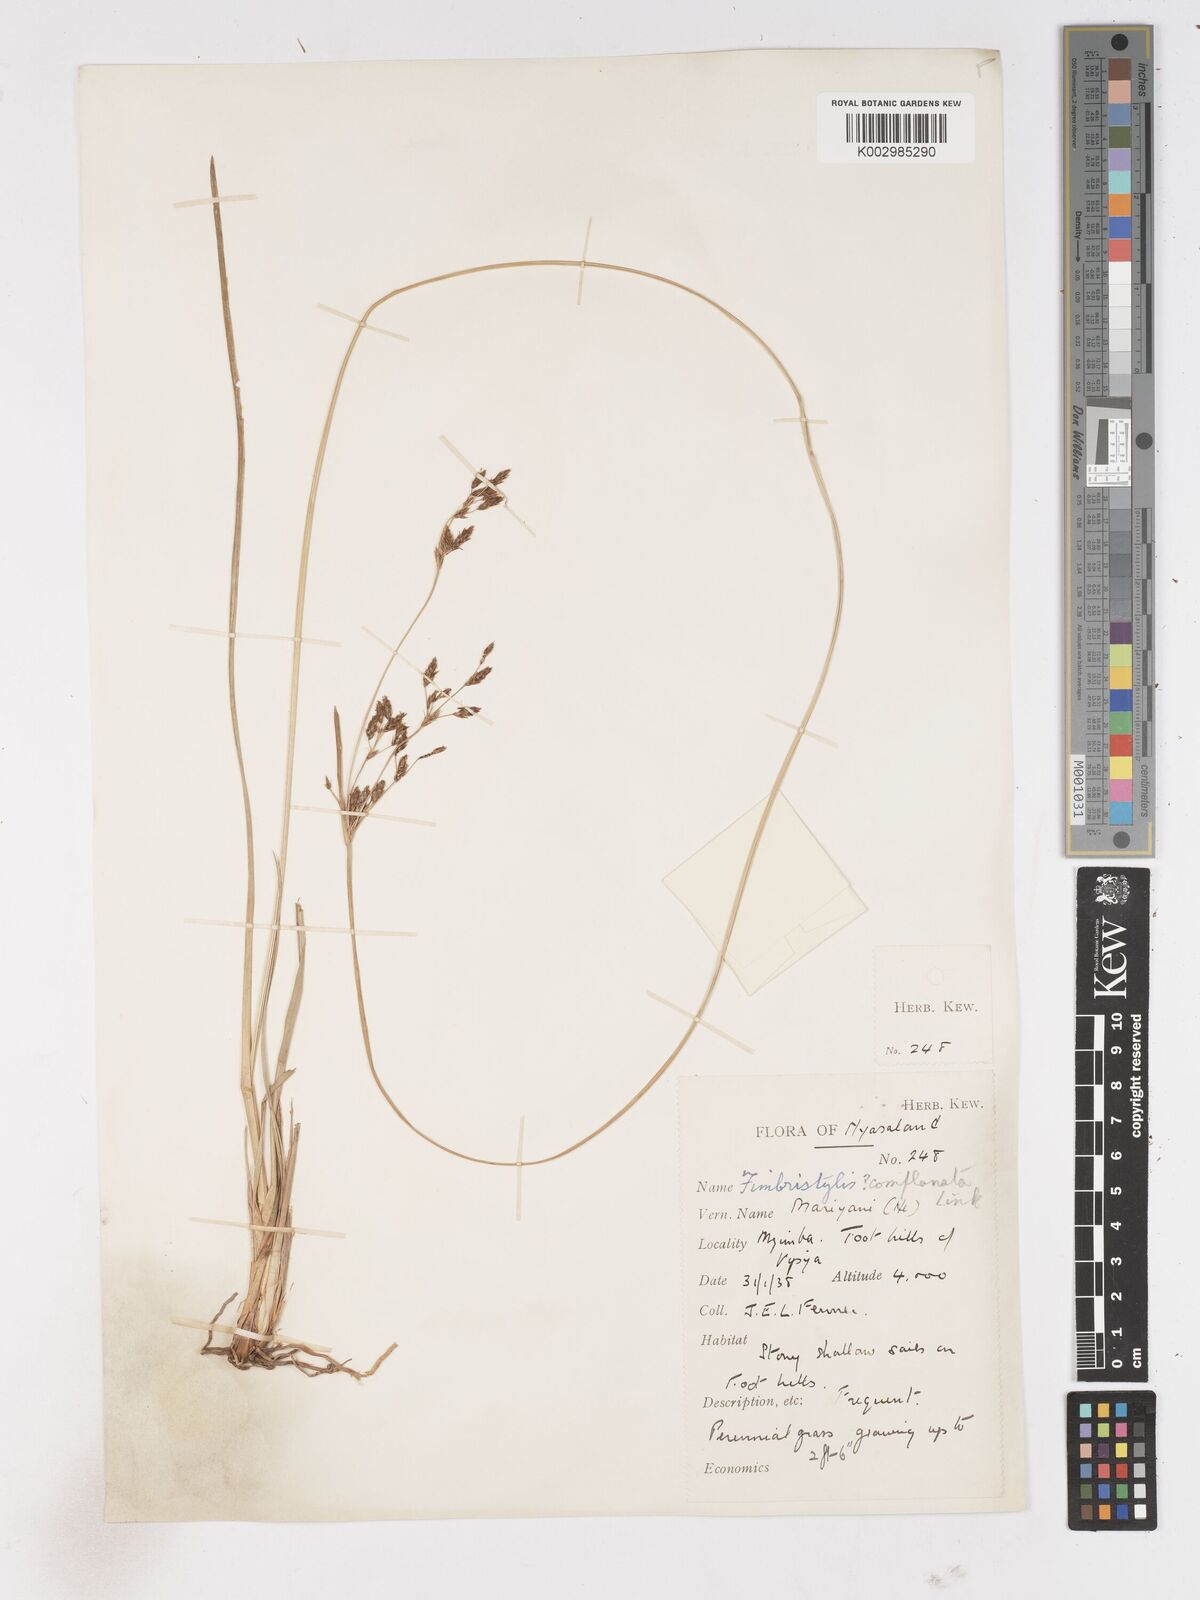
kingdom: Plantae
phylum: Tracheophyta
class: Liliopsida
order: Poales
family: Cyperaceae
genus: Fimbristylis
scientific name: Fimbristylis complanata
